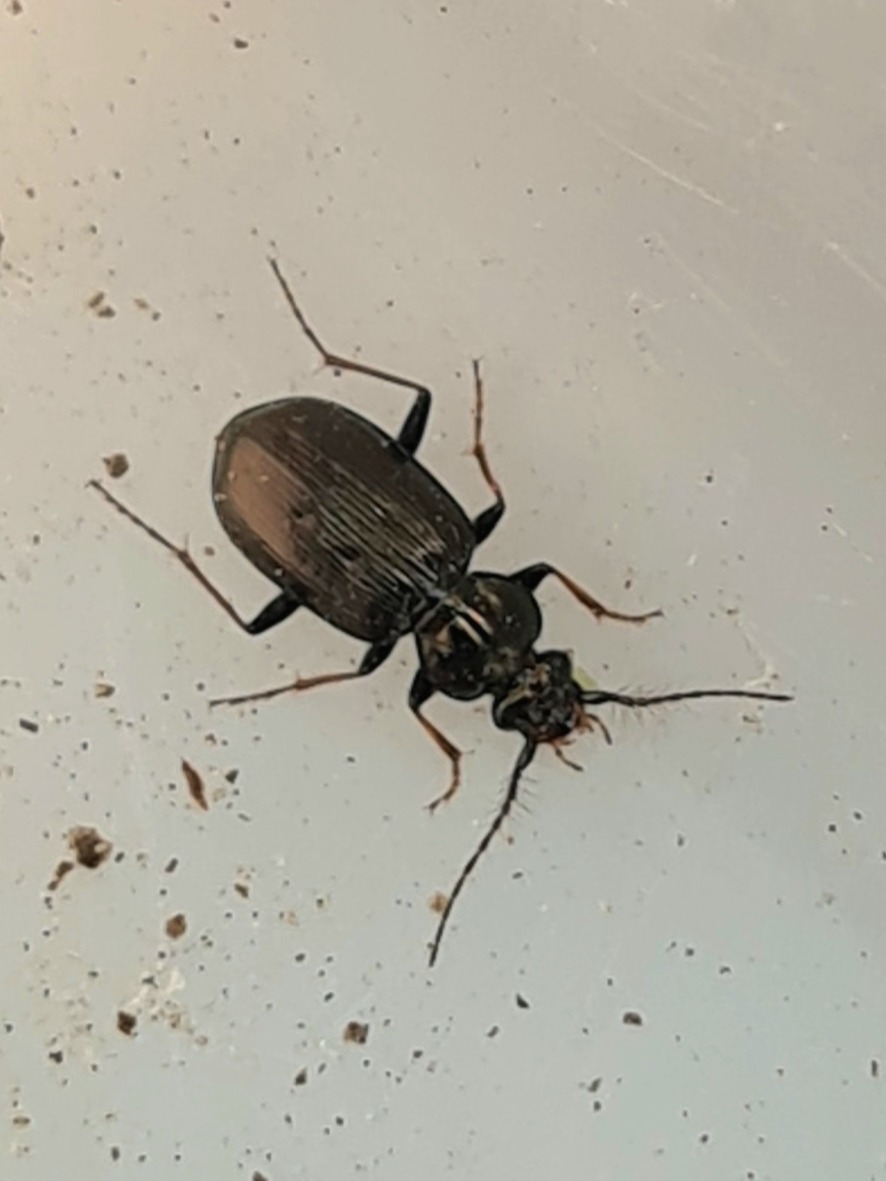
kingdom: Animalia
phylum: Arthropoda
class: Insecta
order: Coleoptera
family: Carabidae
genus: Loricera
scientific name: Loricera pilicornis
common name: Børsteløber
